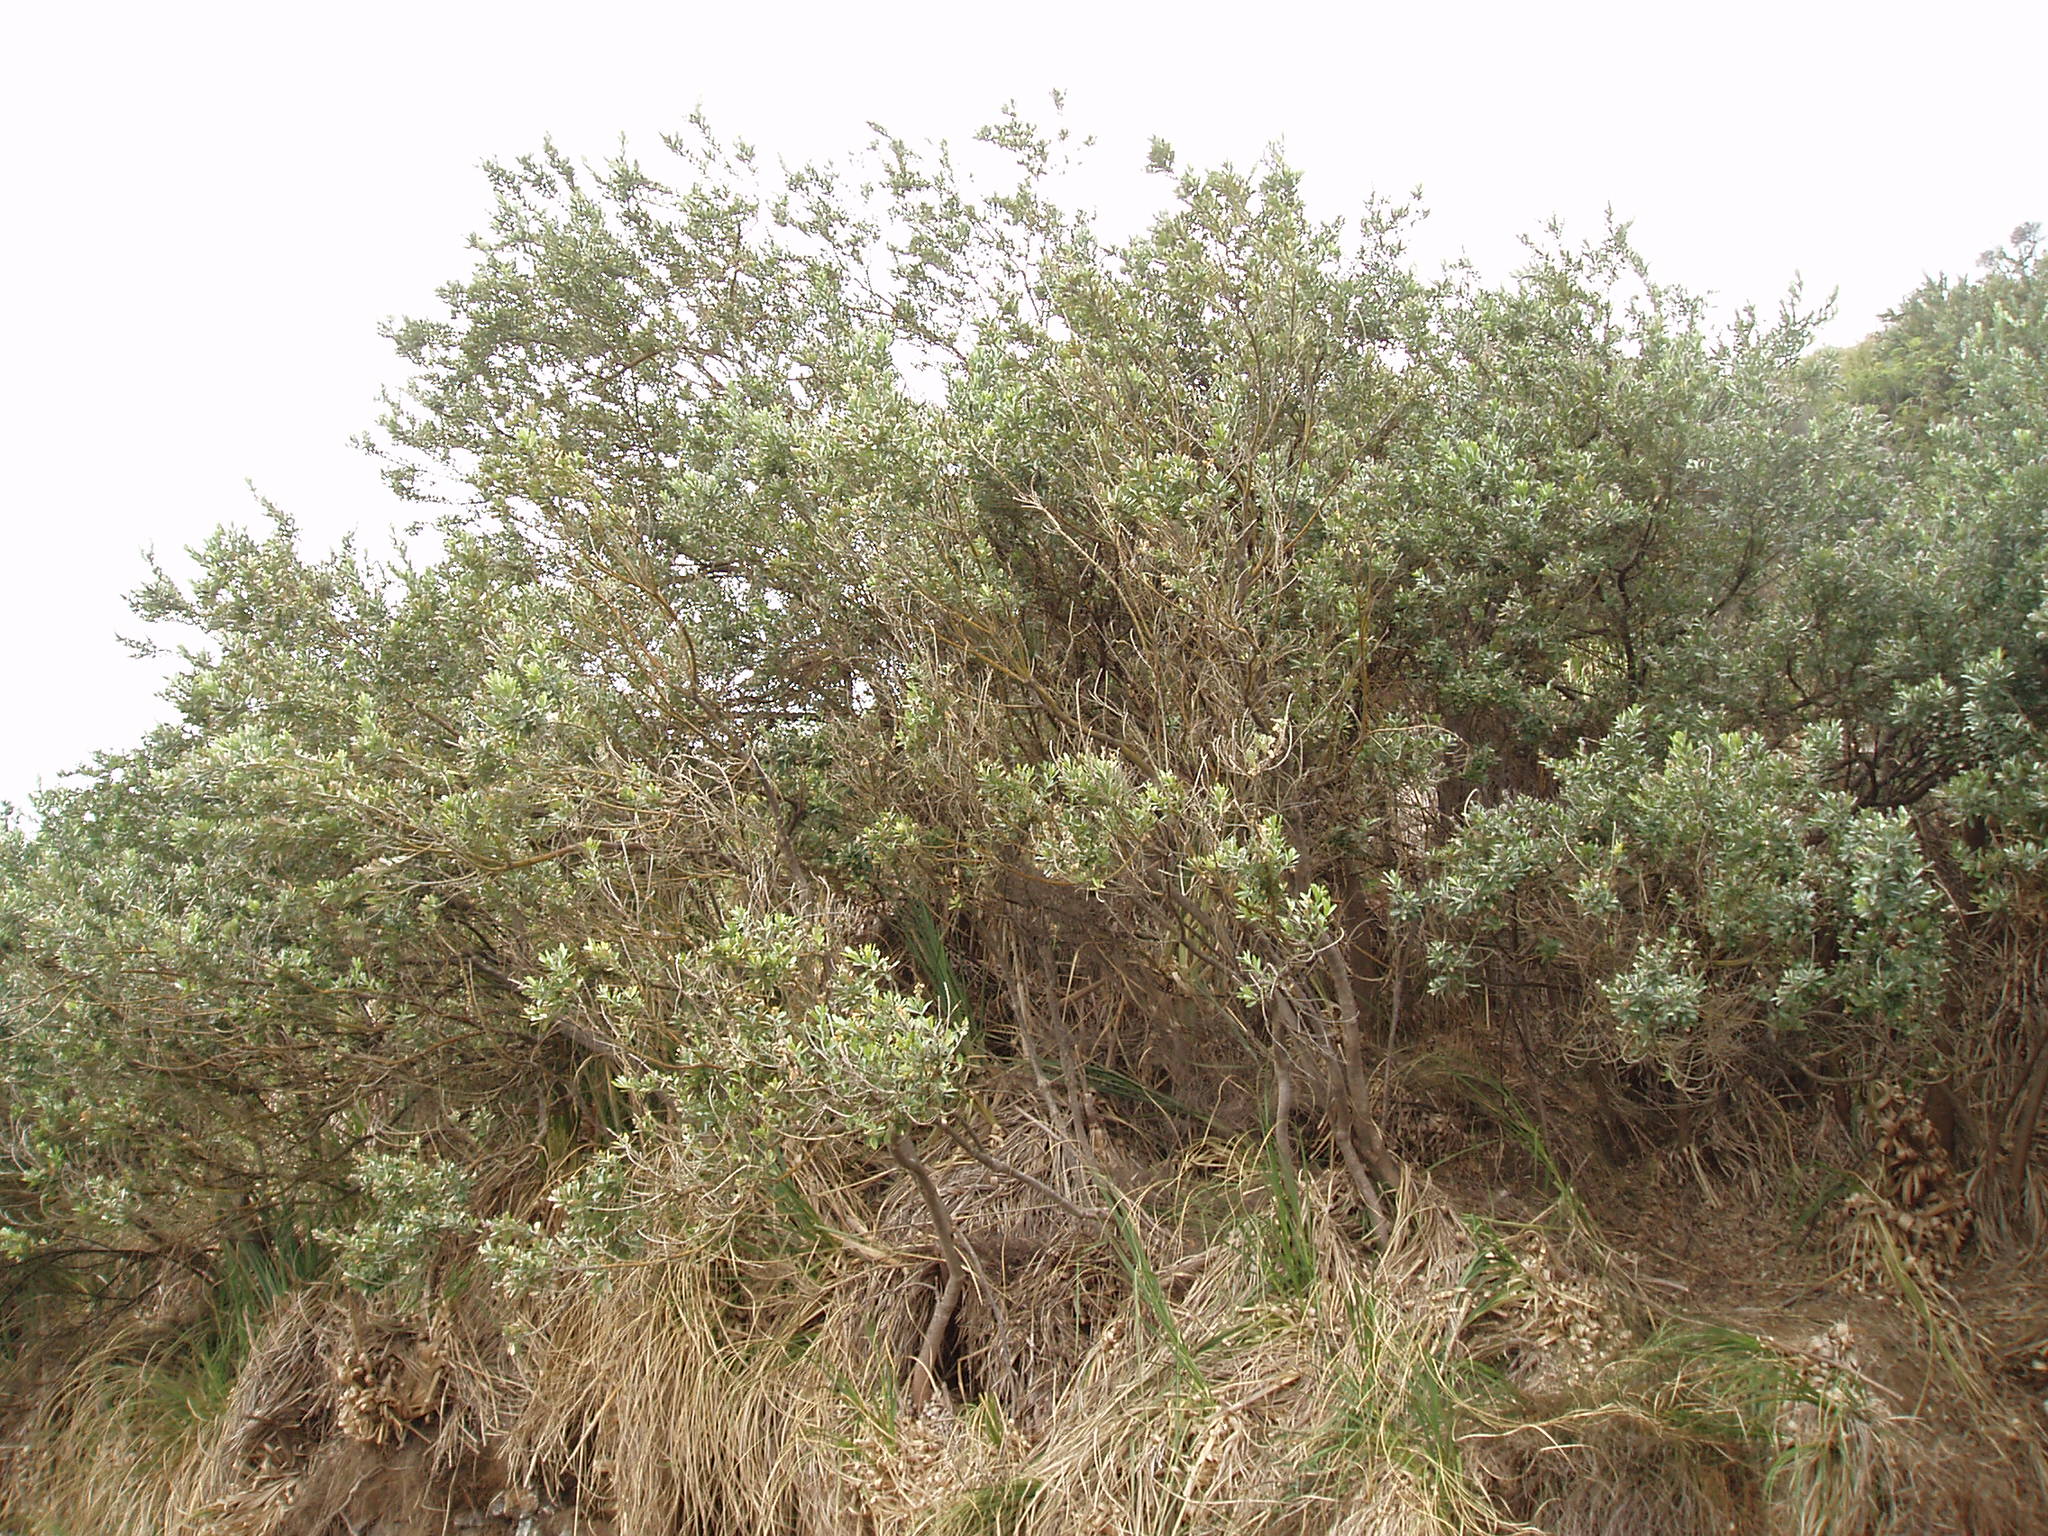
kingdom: Plantae
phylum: Tracheophyta
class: Magnoliopsida
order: Fabales
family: Fabaceae
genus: Callistachys
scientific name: Callistachys lanceolata
